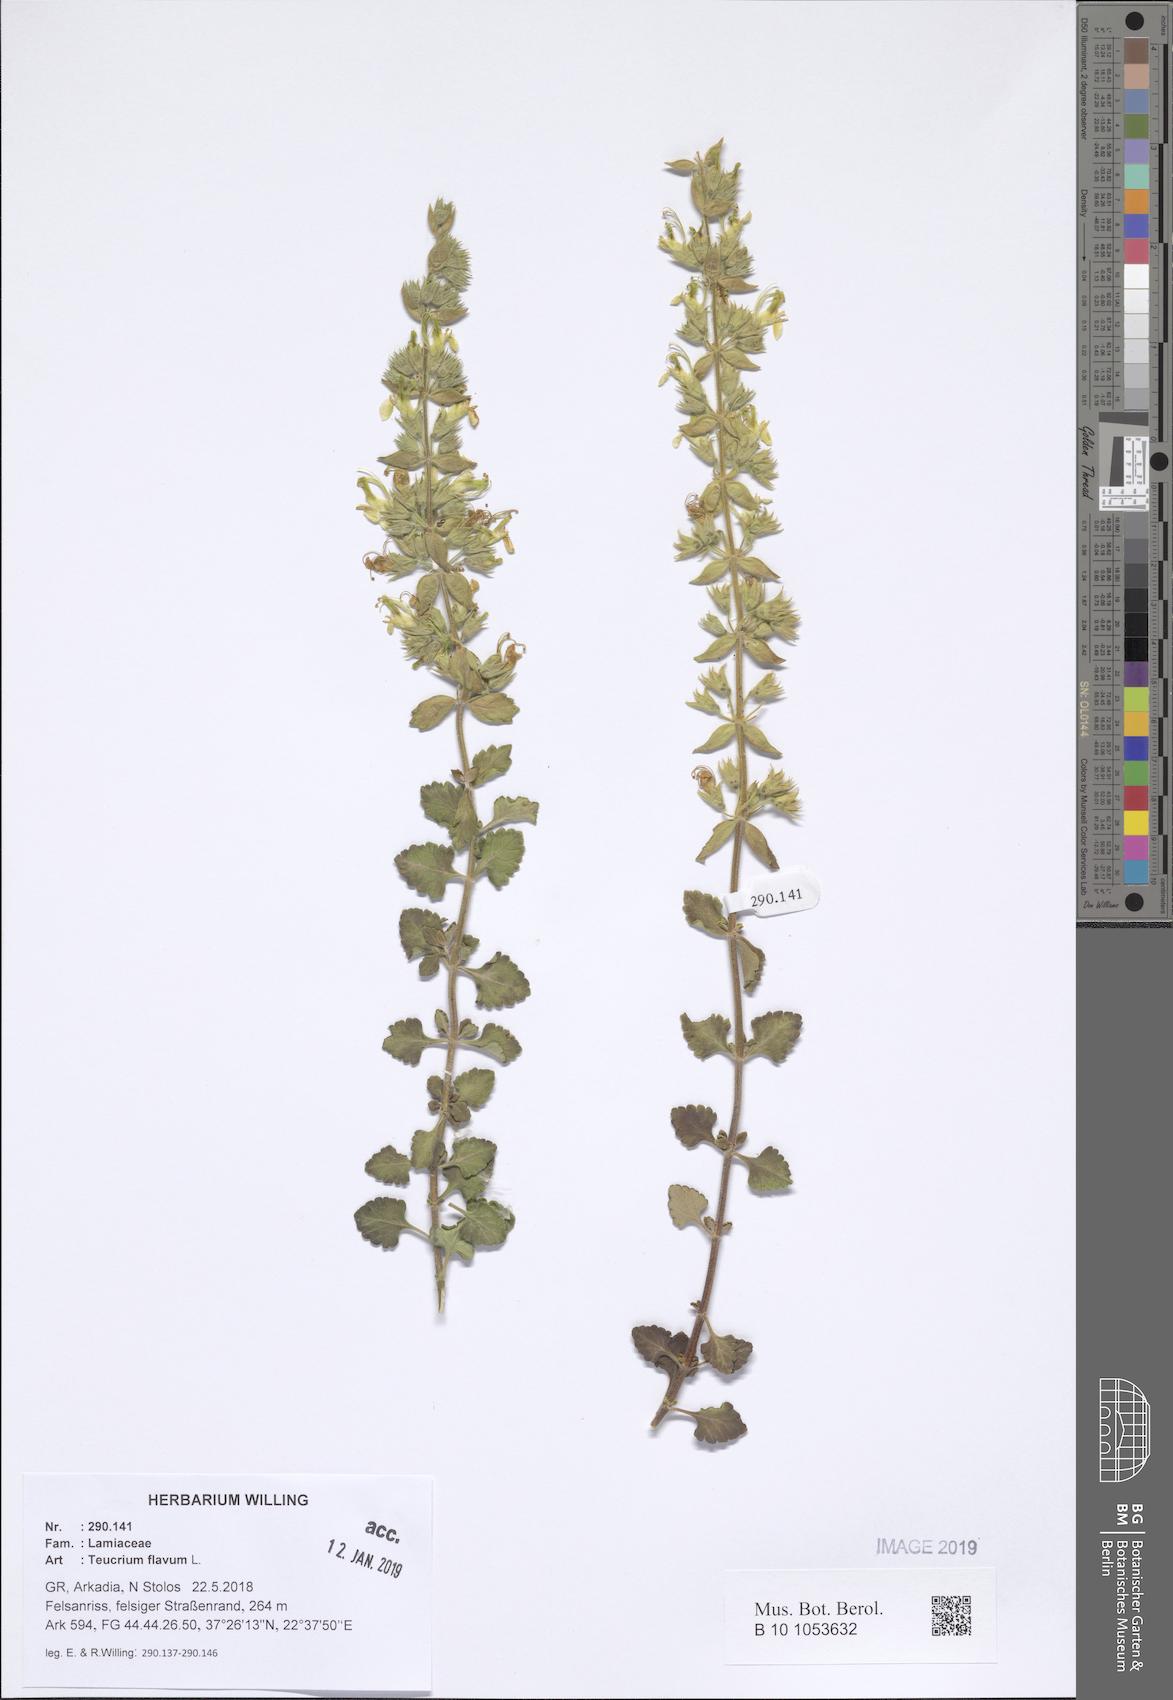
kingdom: Plantae
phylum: Tracheophyta
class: Magnoliopsida
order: Lamiales
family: Lamiaceae
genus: Teucrium
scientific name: Teucrium flavum
